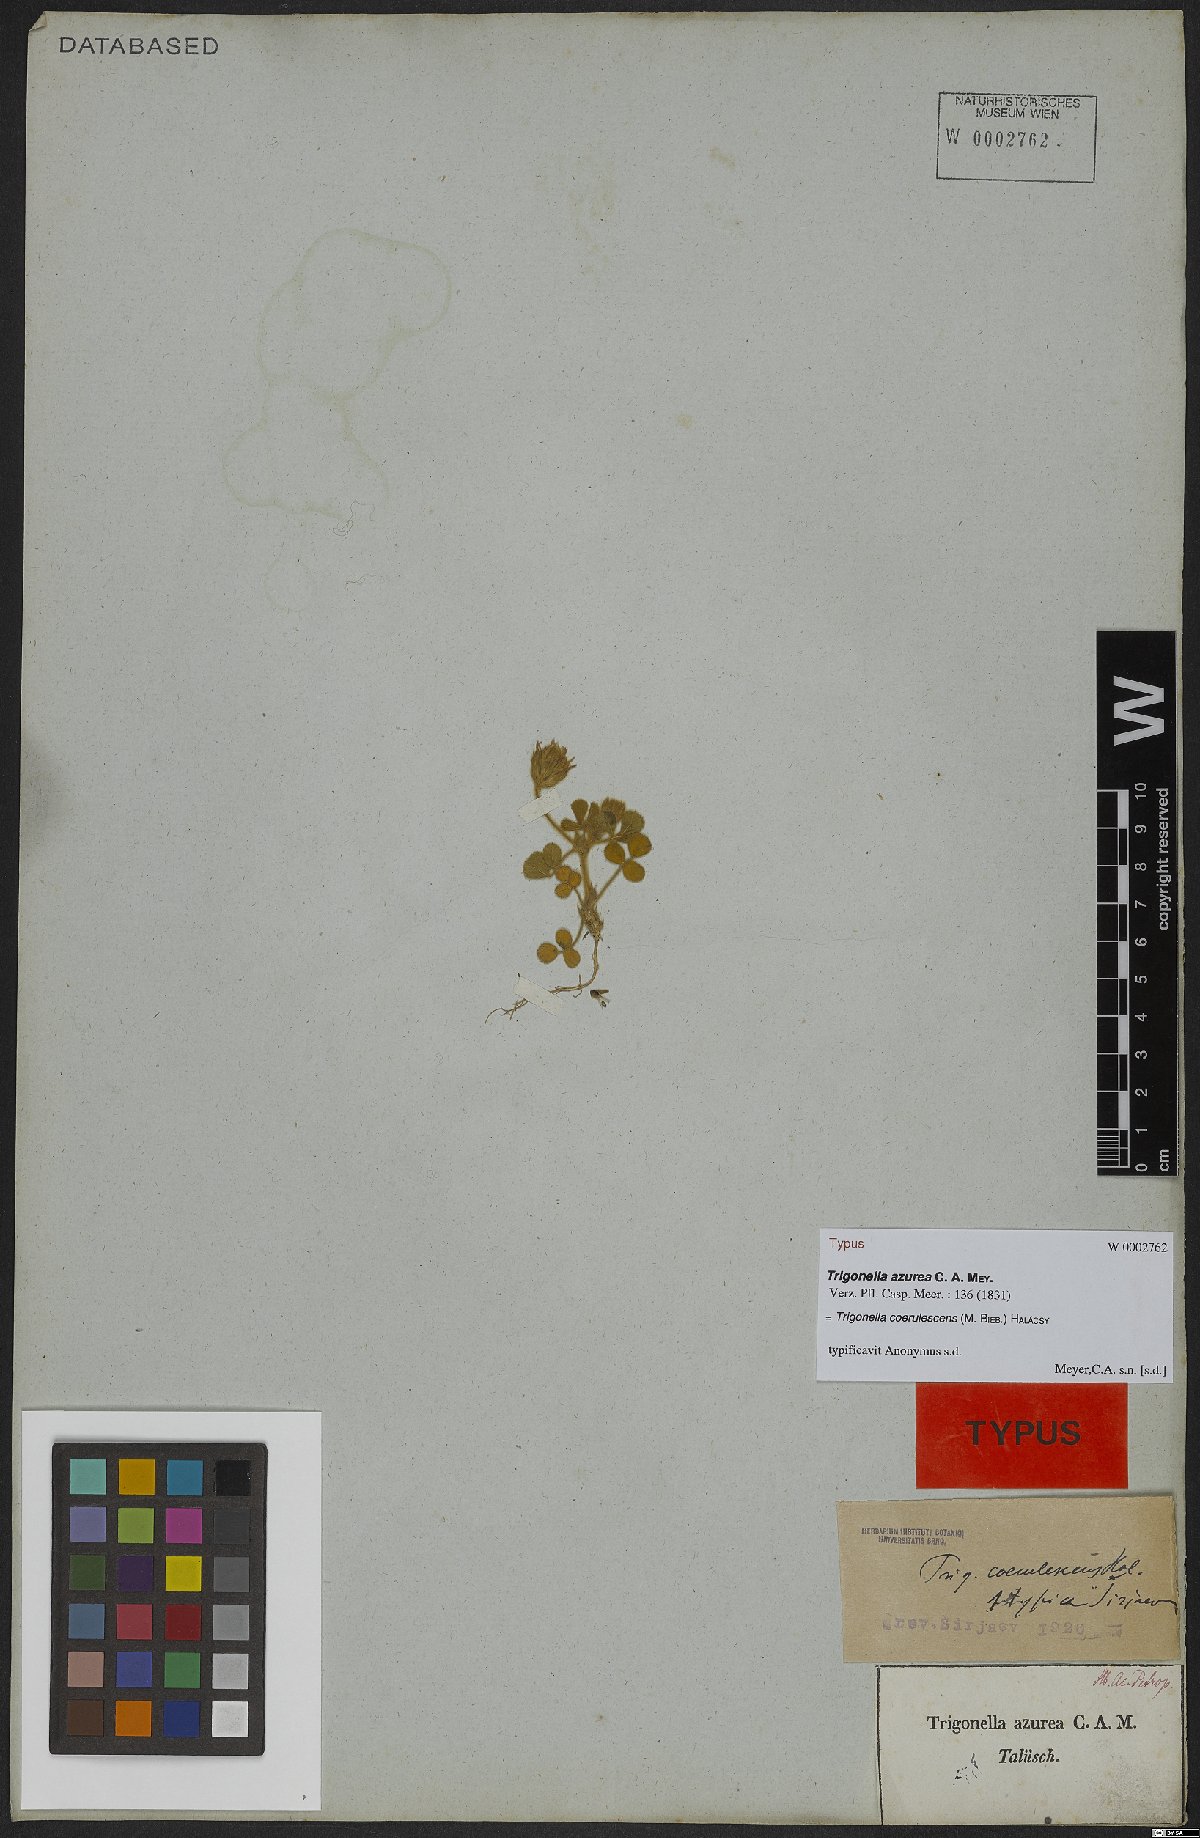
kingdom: Plantae
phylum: Tracheophyta
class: Magnoliopsida
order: Fabales
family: Fabaceae
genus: Trigonella
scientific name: Trigonella coerulescens
